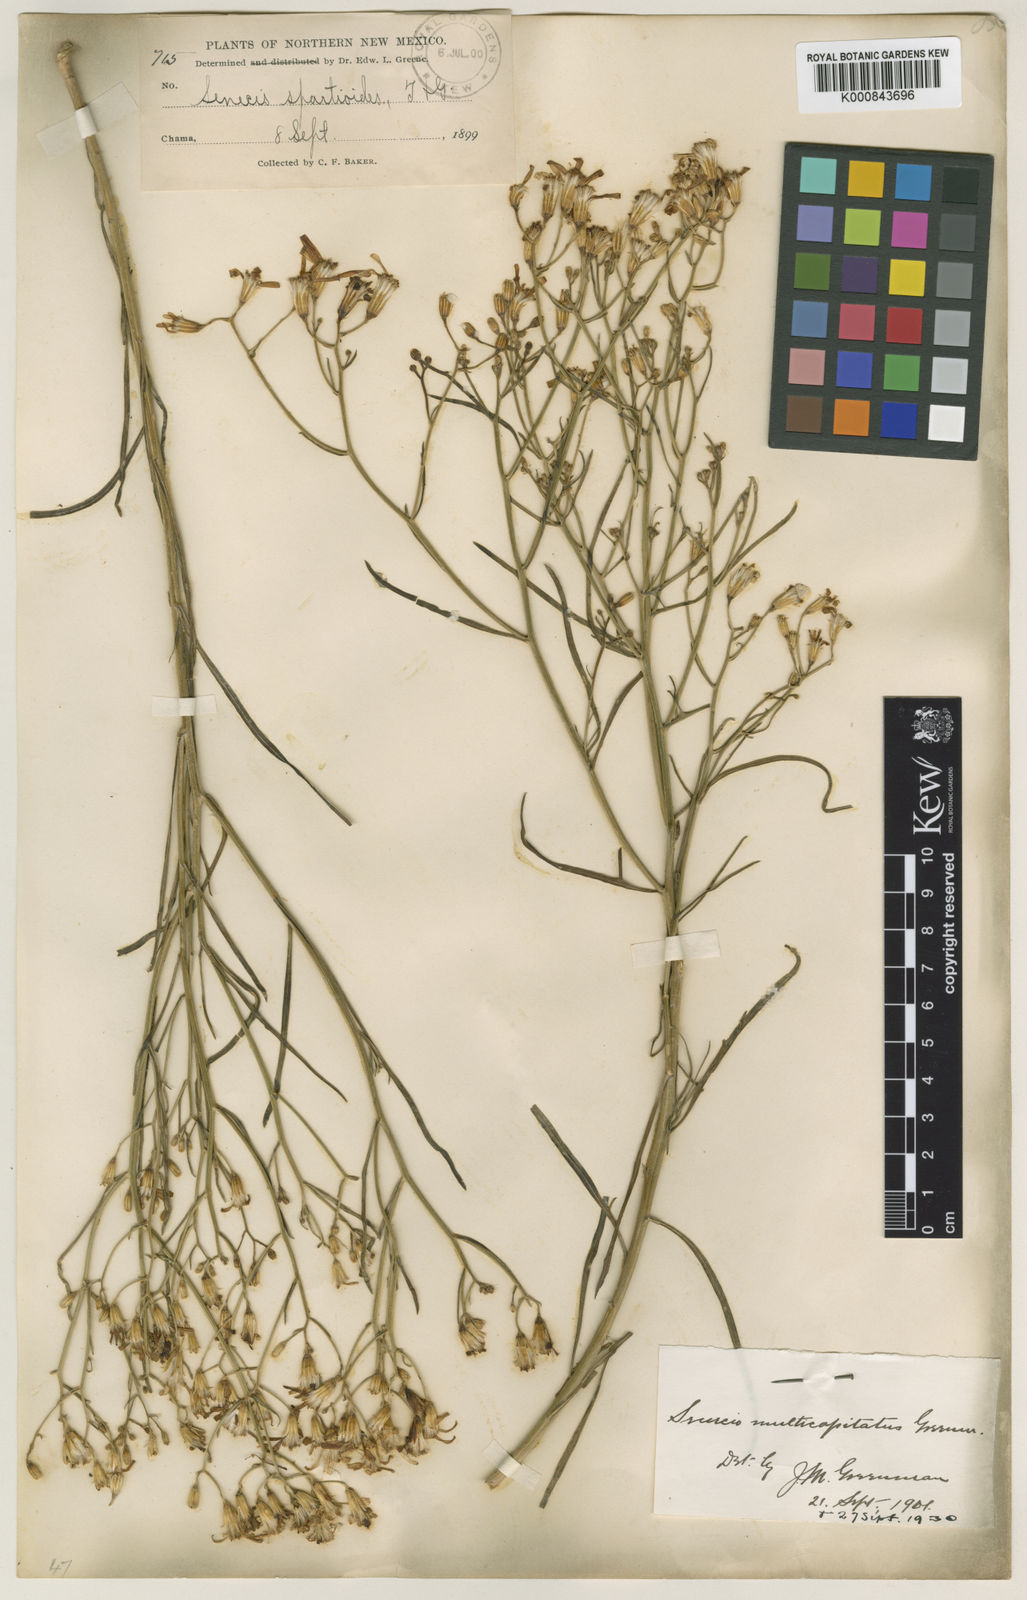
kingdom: Plantae
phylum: Tracheophyta
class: Magnoliopsida
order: Asterales
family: Asteraceae
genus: Senecio
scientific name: Senecio spartioides
